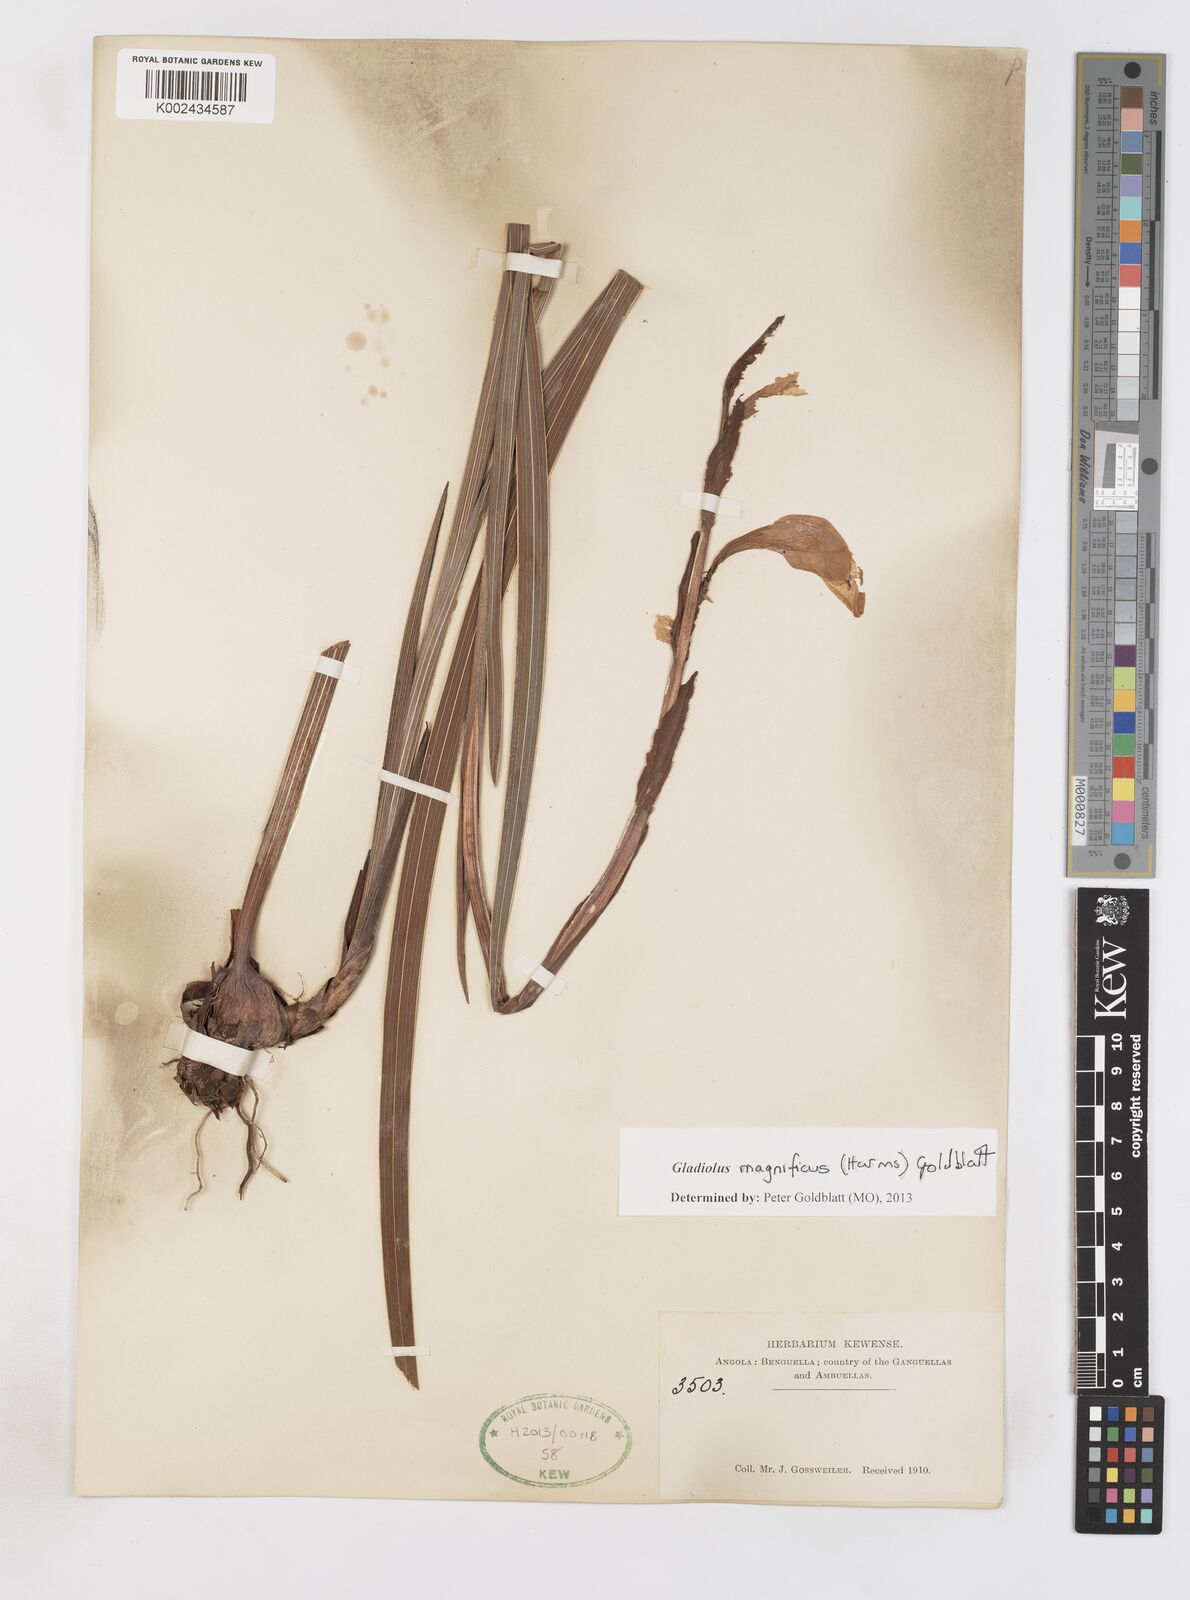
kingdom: Plantae
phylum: Tracheophyta
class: Liliopsida
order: Asparagales
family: Iridaceae
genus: Gladiolus
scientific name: Gladiolus magnificus
